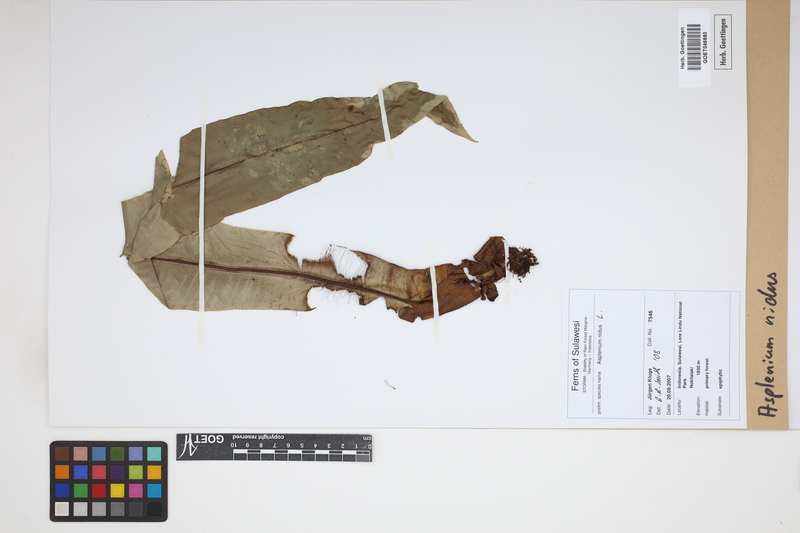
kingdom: Plantae
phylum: Tracheophyta
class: Polypodiopsida
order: Polypodiales
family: Aspleniaceae
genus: Asplenium
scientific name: Asplenium nidus
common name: Bird's-nest fern
